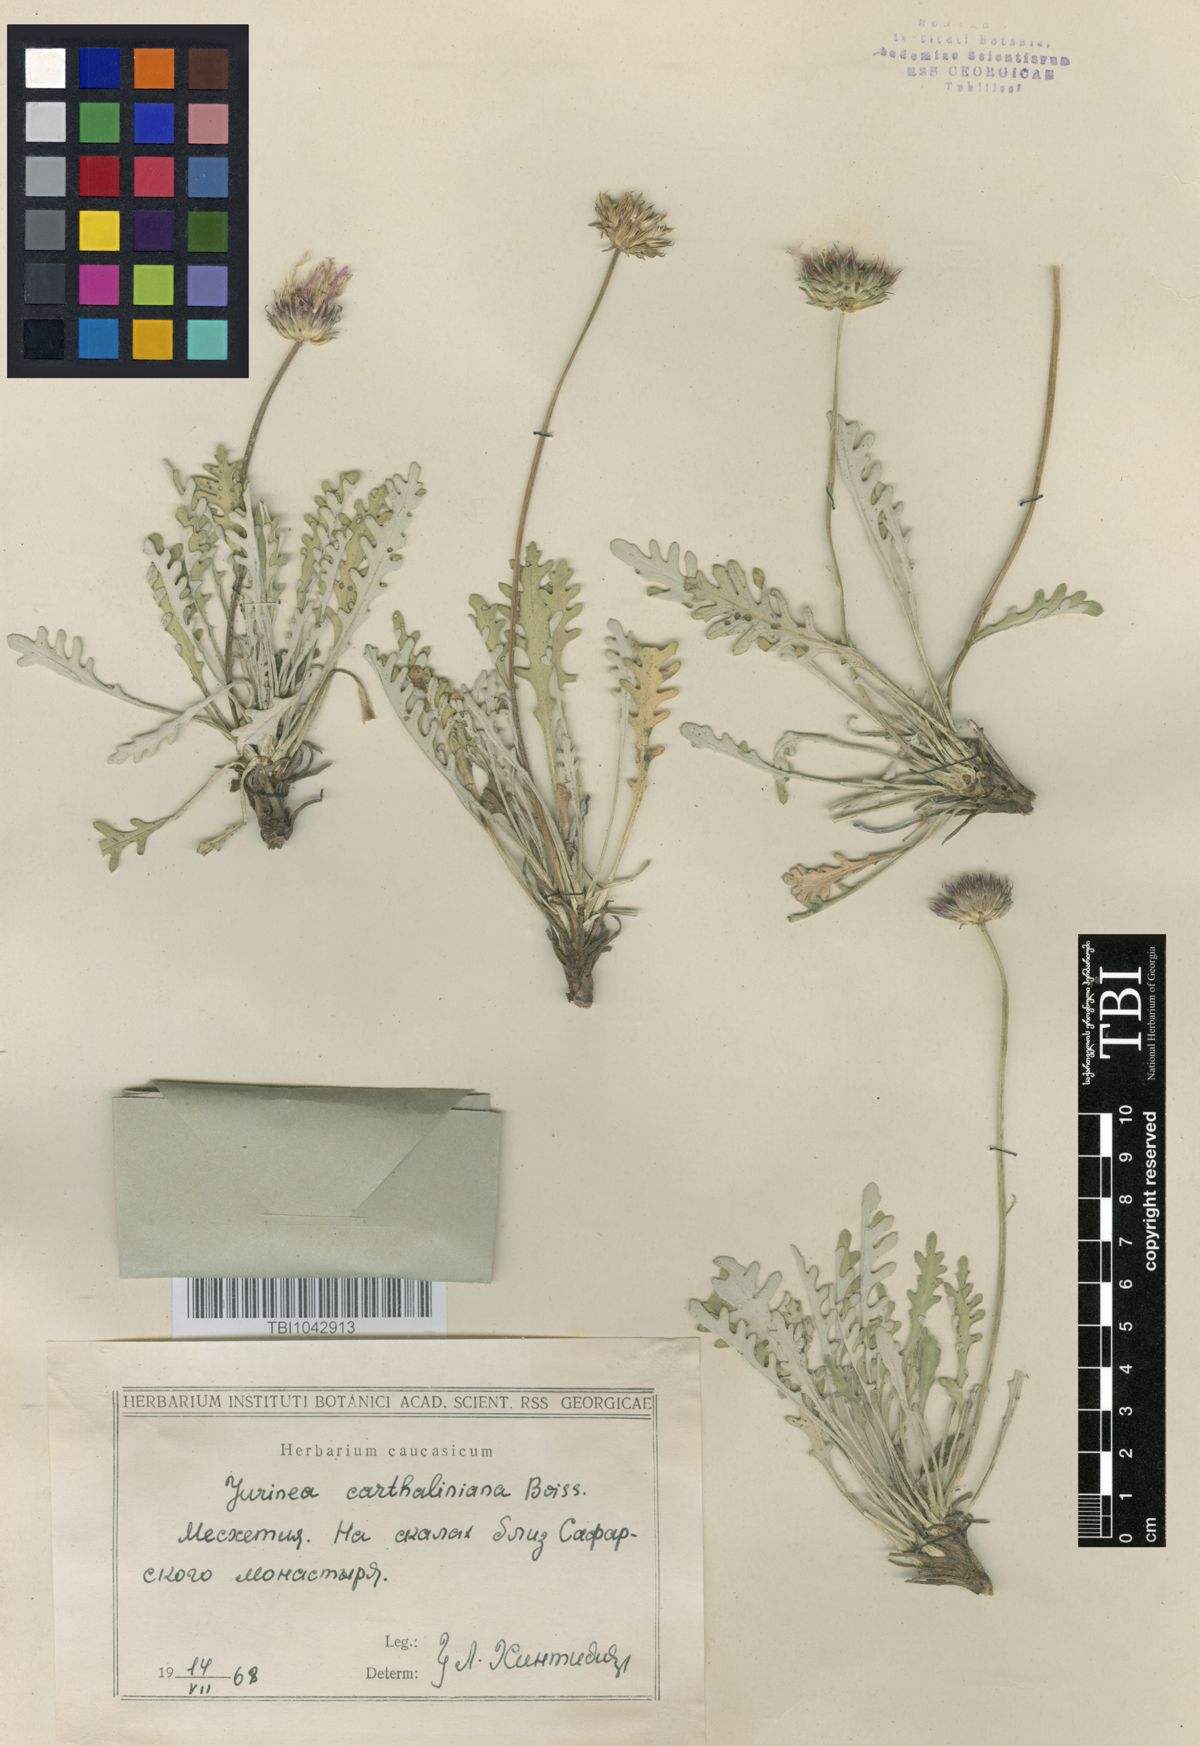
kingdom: Plantae
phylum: Tracheophyta
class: Magnoliopsida
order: Asterales
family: Asteraceae
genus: Jurinea
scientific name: Jurinea cartaliniana
